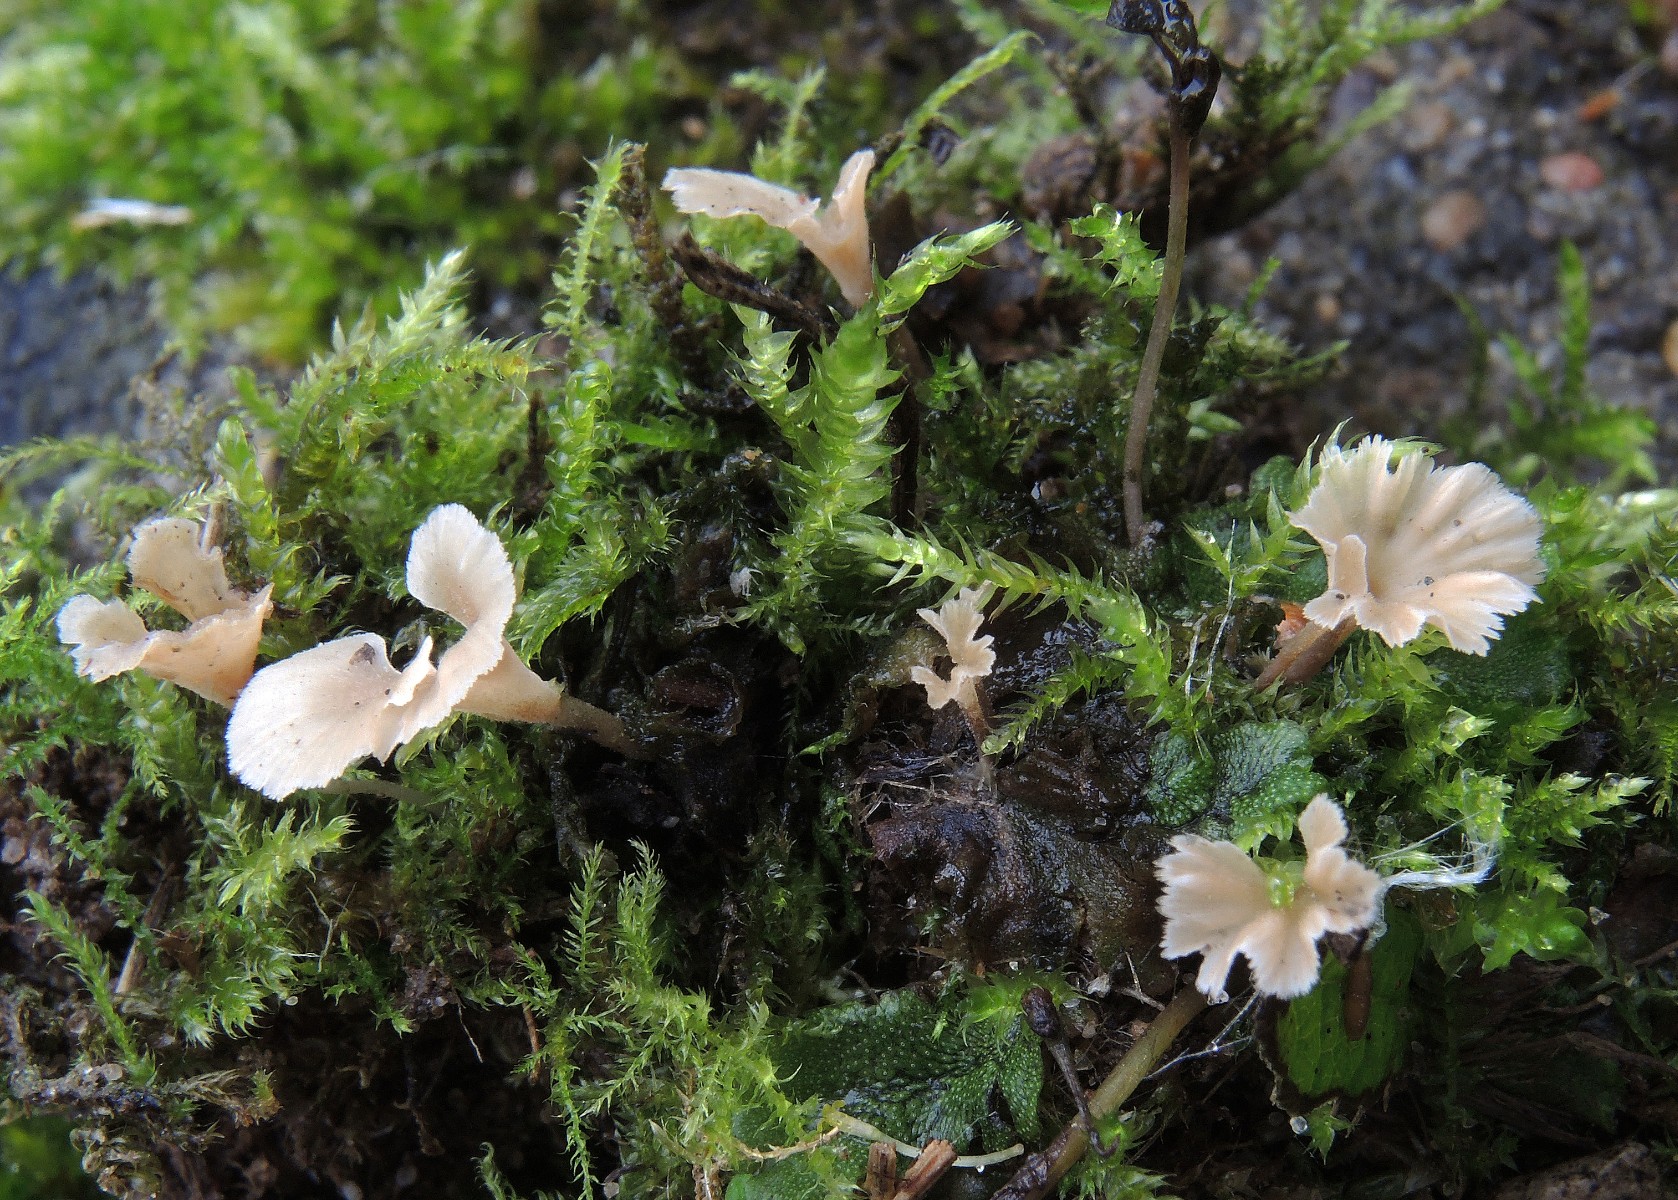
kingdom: Fungi
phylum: Basidiomycota
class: Agaricomycetes
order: Hymenochaetales
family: Rickenellaceae
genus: Cotylidia
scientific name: Cotylidia muscigena
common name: mos-navlesvamp
